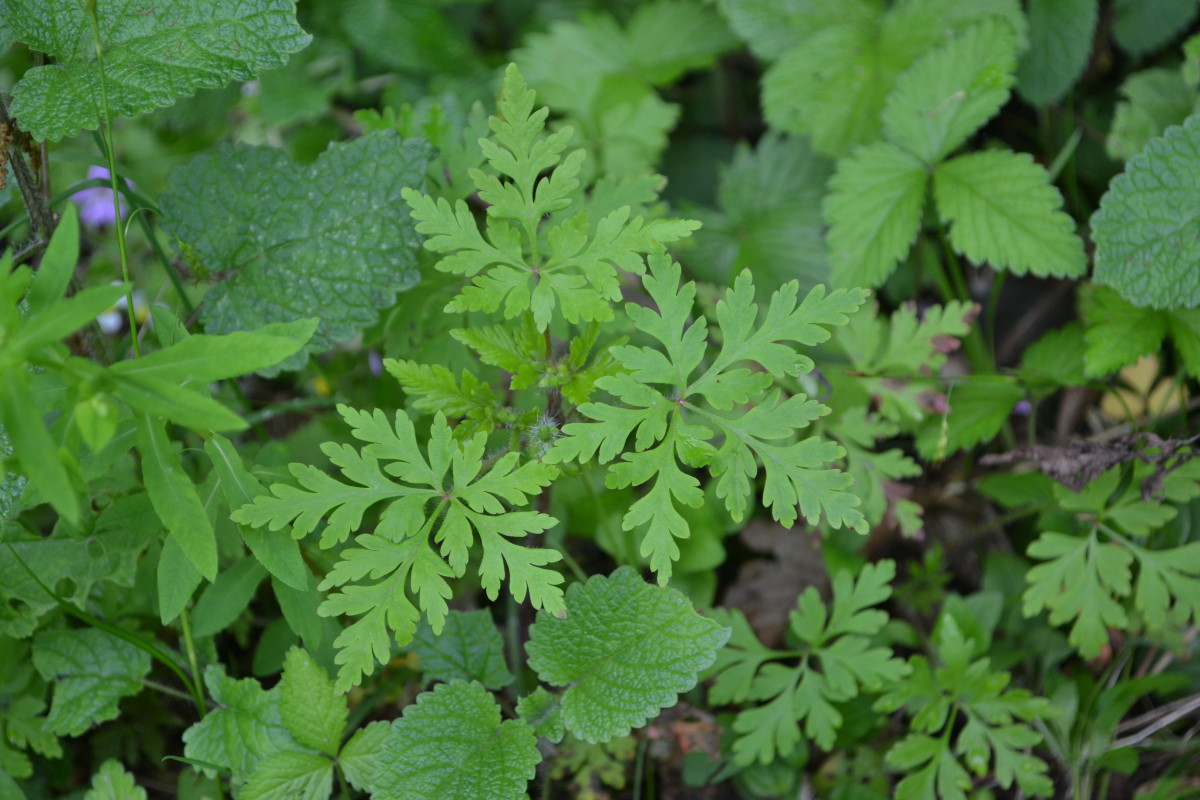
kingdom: Plantae
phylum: Tracheophyta
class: Magnoliopsida
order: Geraniales
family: Geraniaceae
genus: Geranium
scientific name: Geranium robertianum
